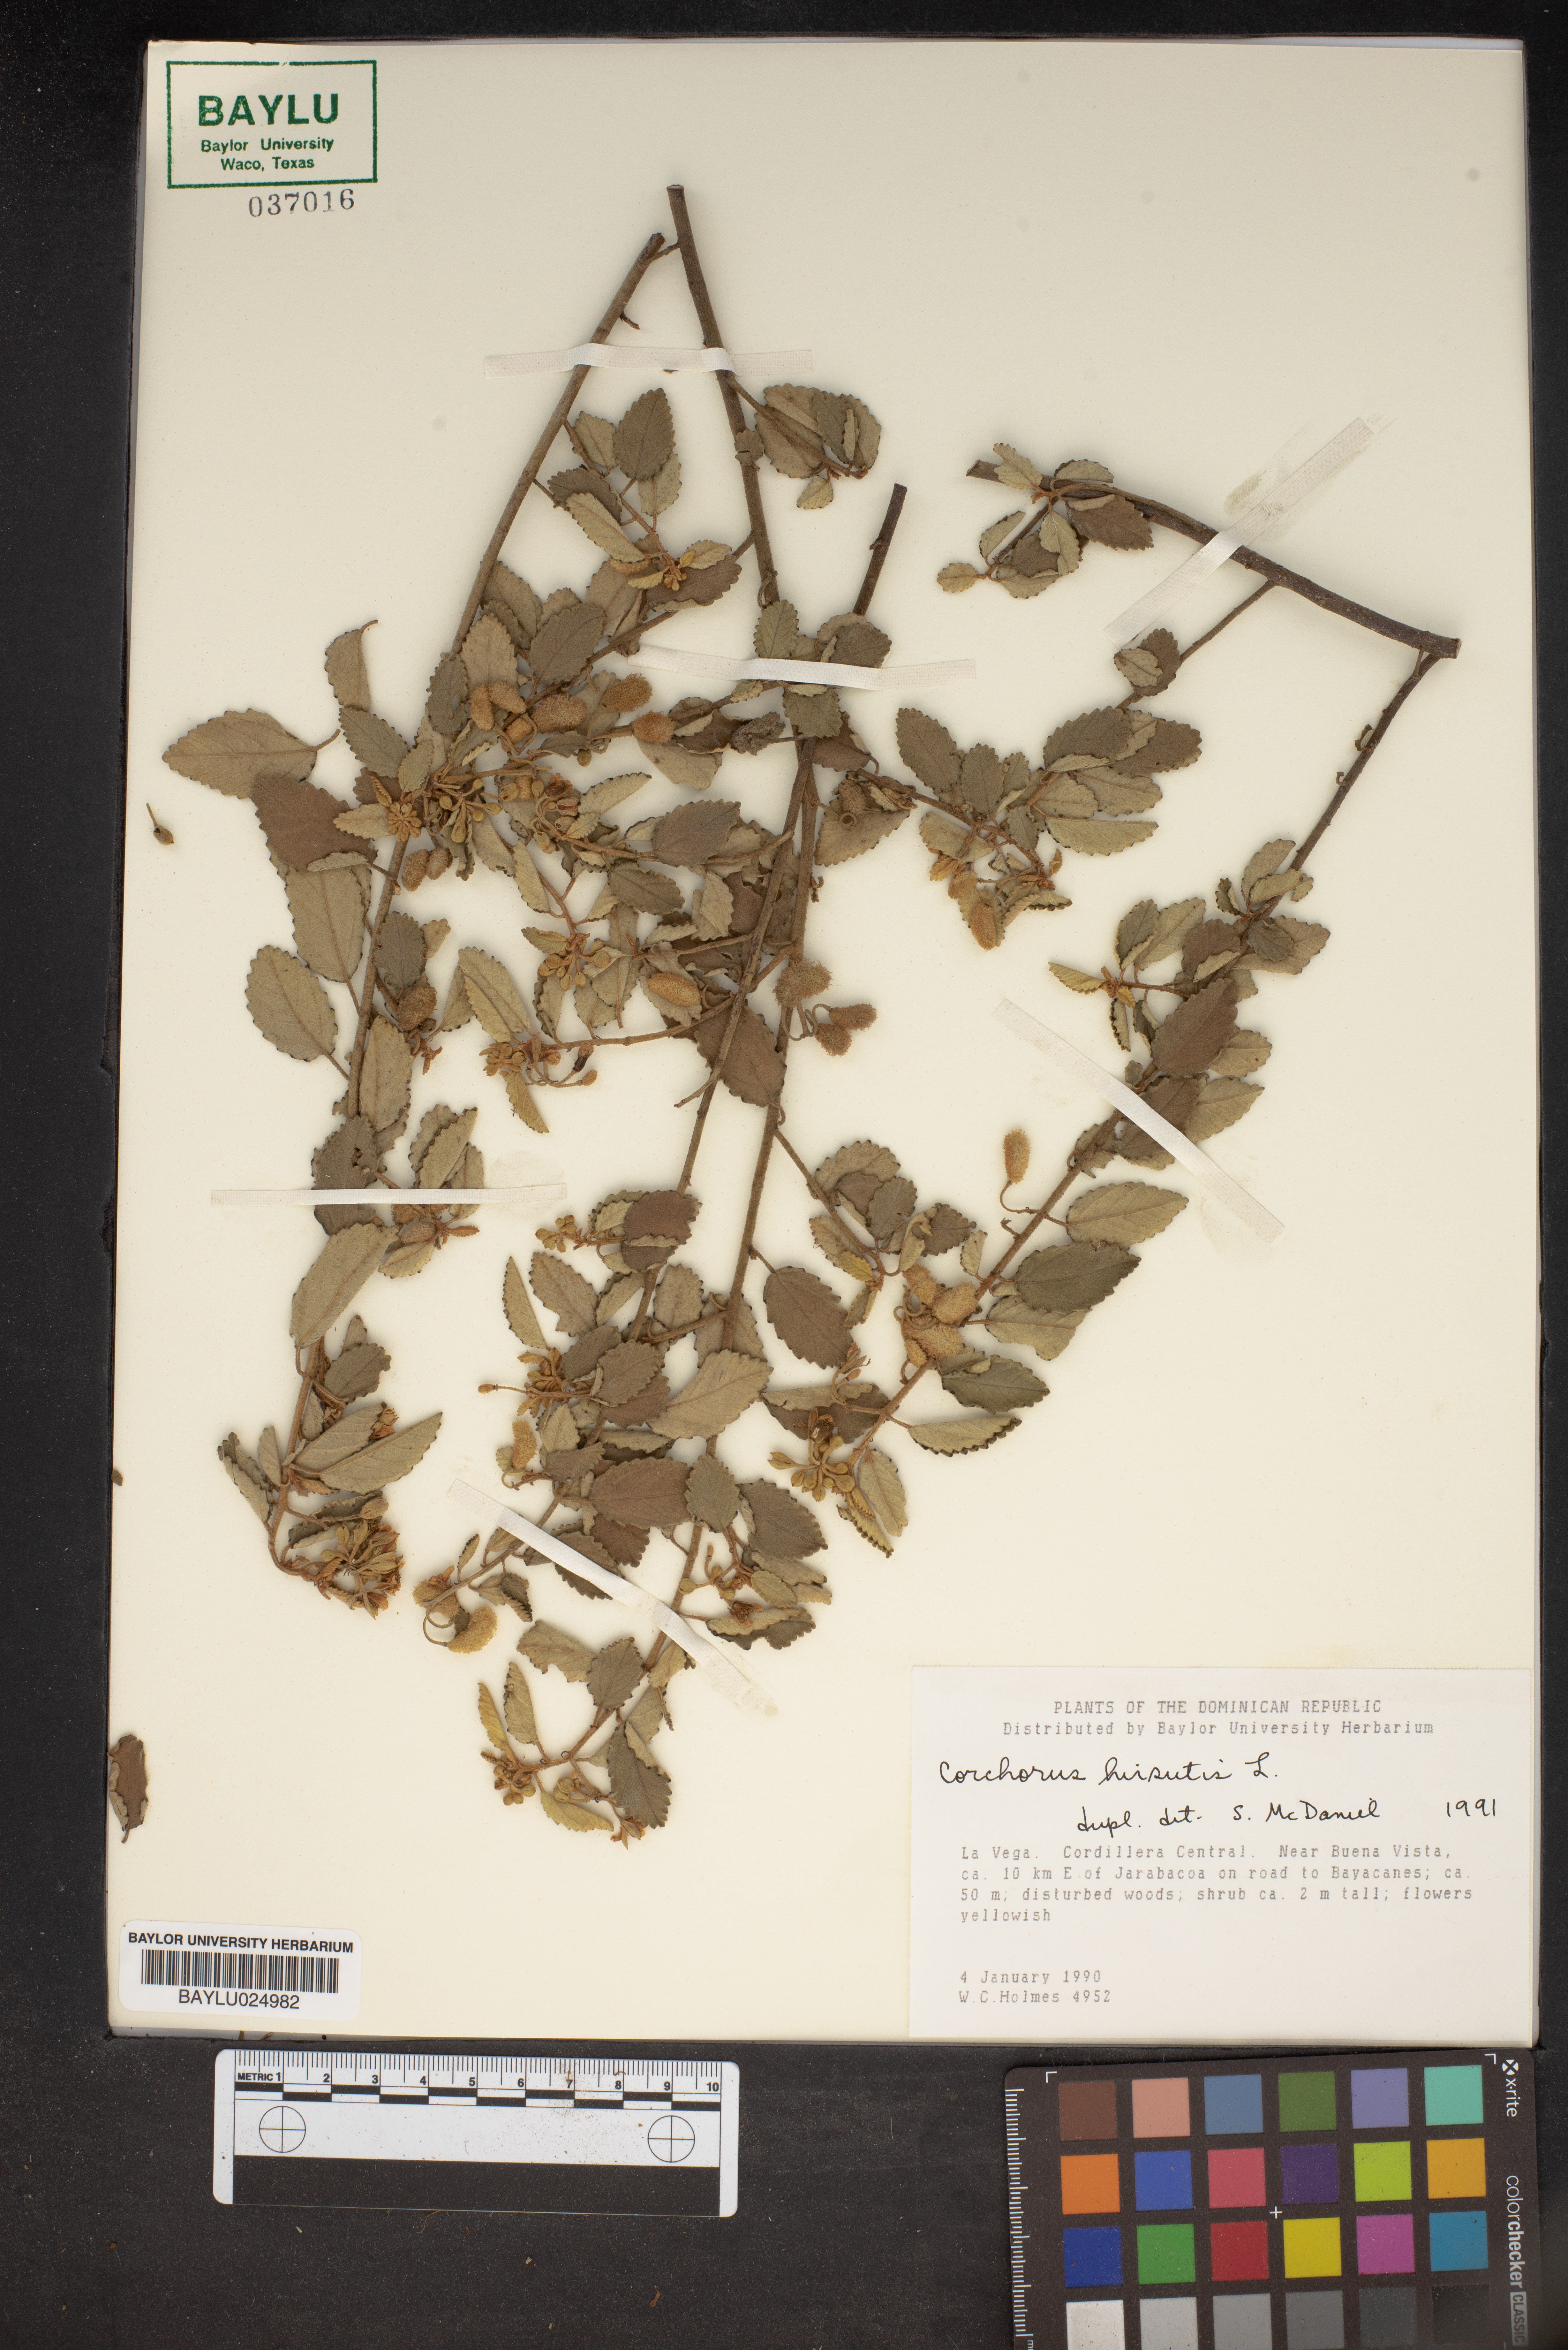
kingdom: Plantae
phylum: Tracheophyta
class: Magnoliopsida
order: Malvales
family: Malvaceae
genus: Corchorus
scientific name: Corchorus hirsutus
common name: Jackswitch
